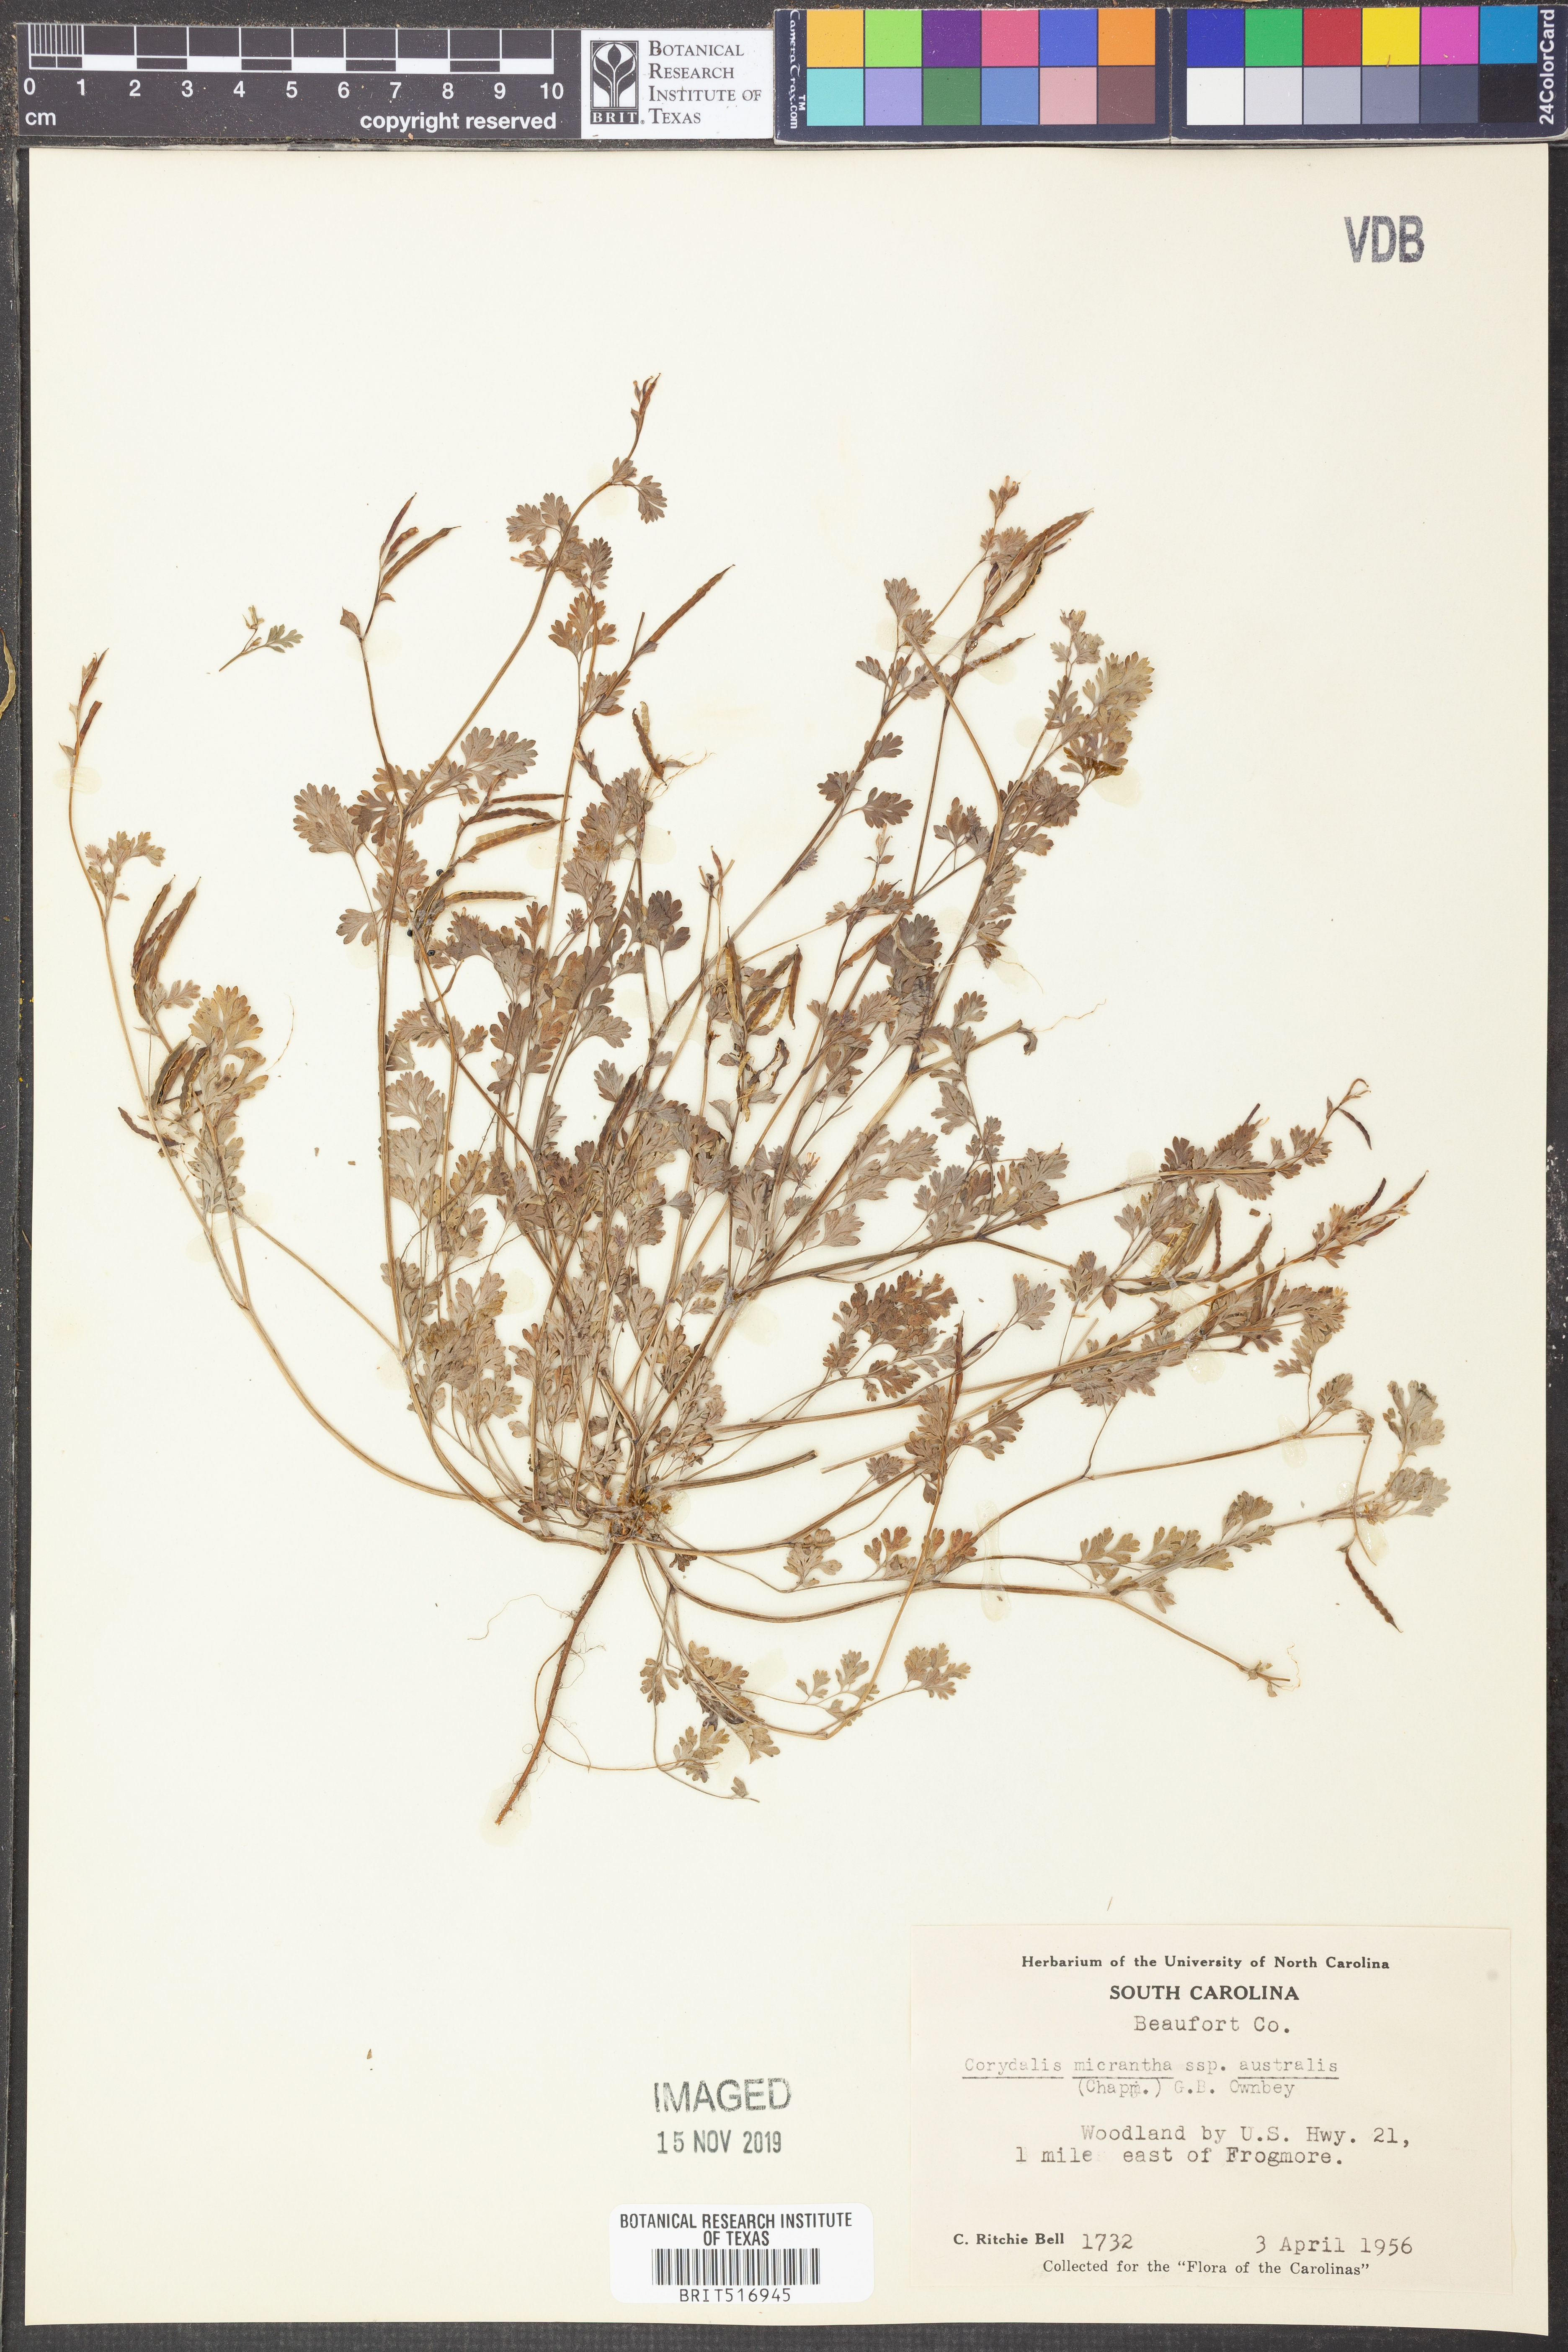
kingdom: Plantae
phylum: Tracheophyta
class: Magnoliopsida
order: Ranunculales
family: Papaveraceae
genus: Corydalis
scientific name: Corydalis micrantha
